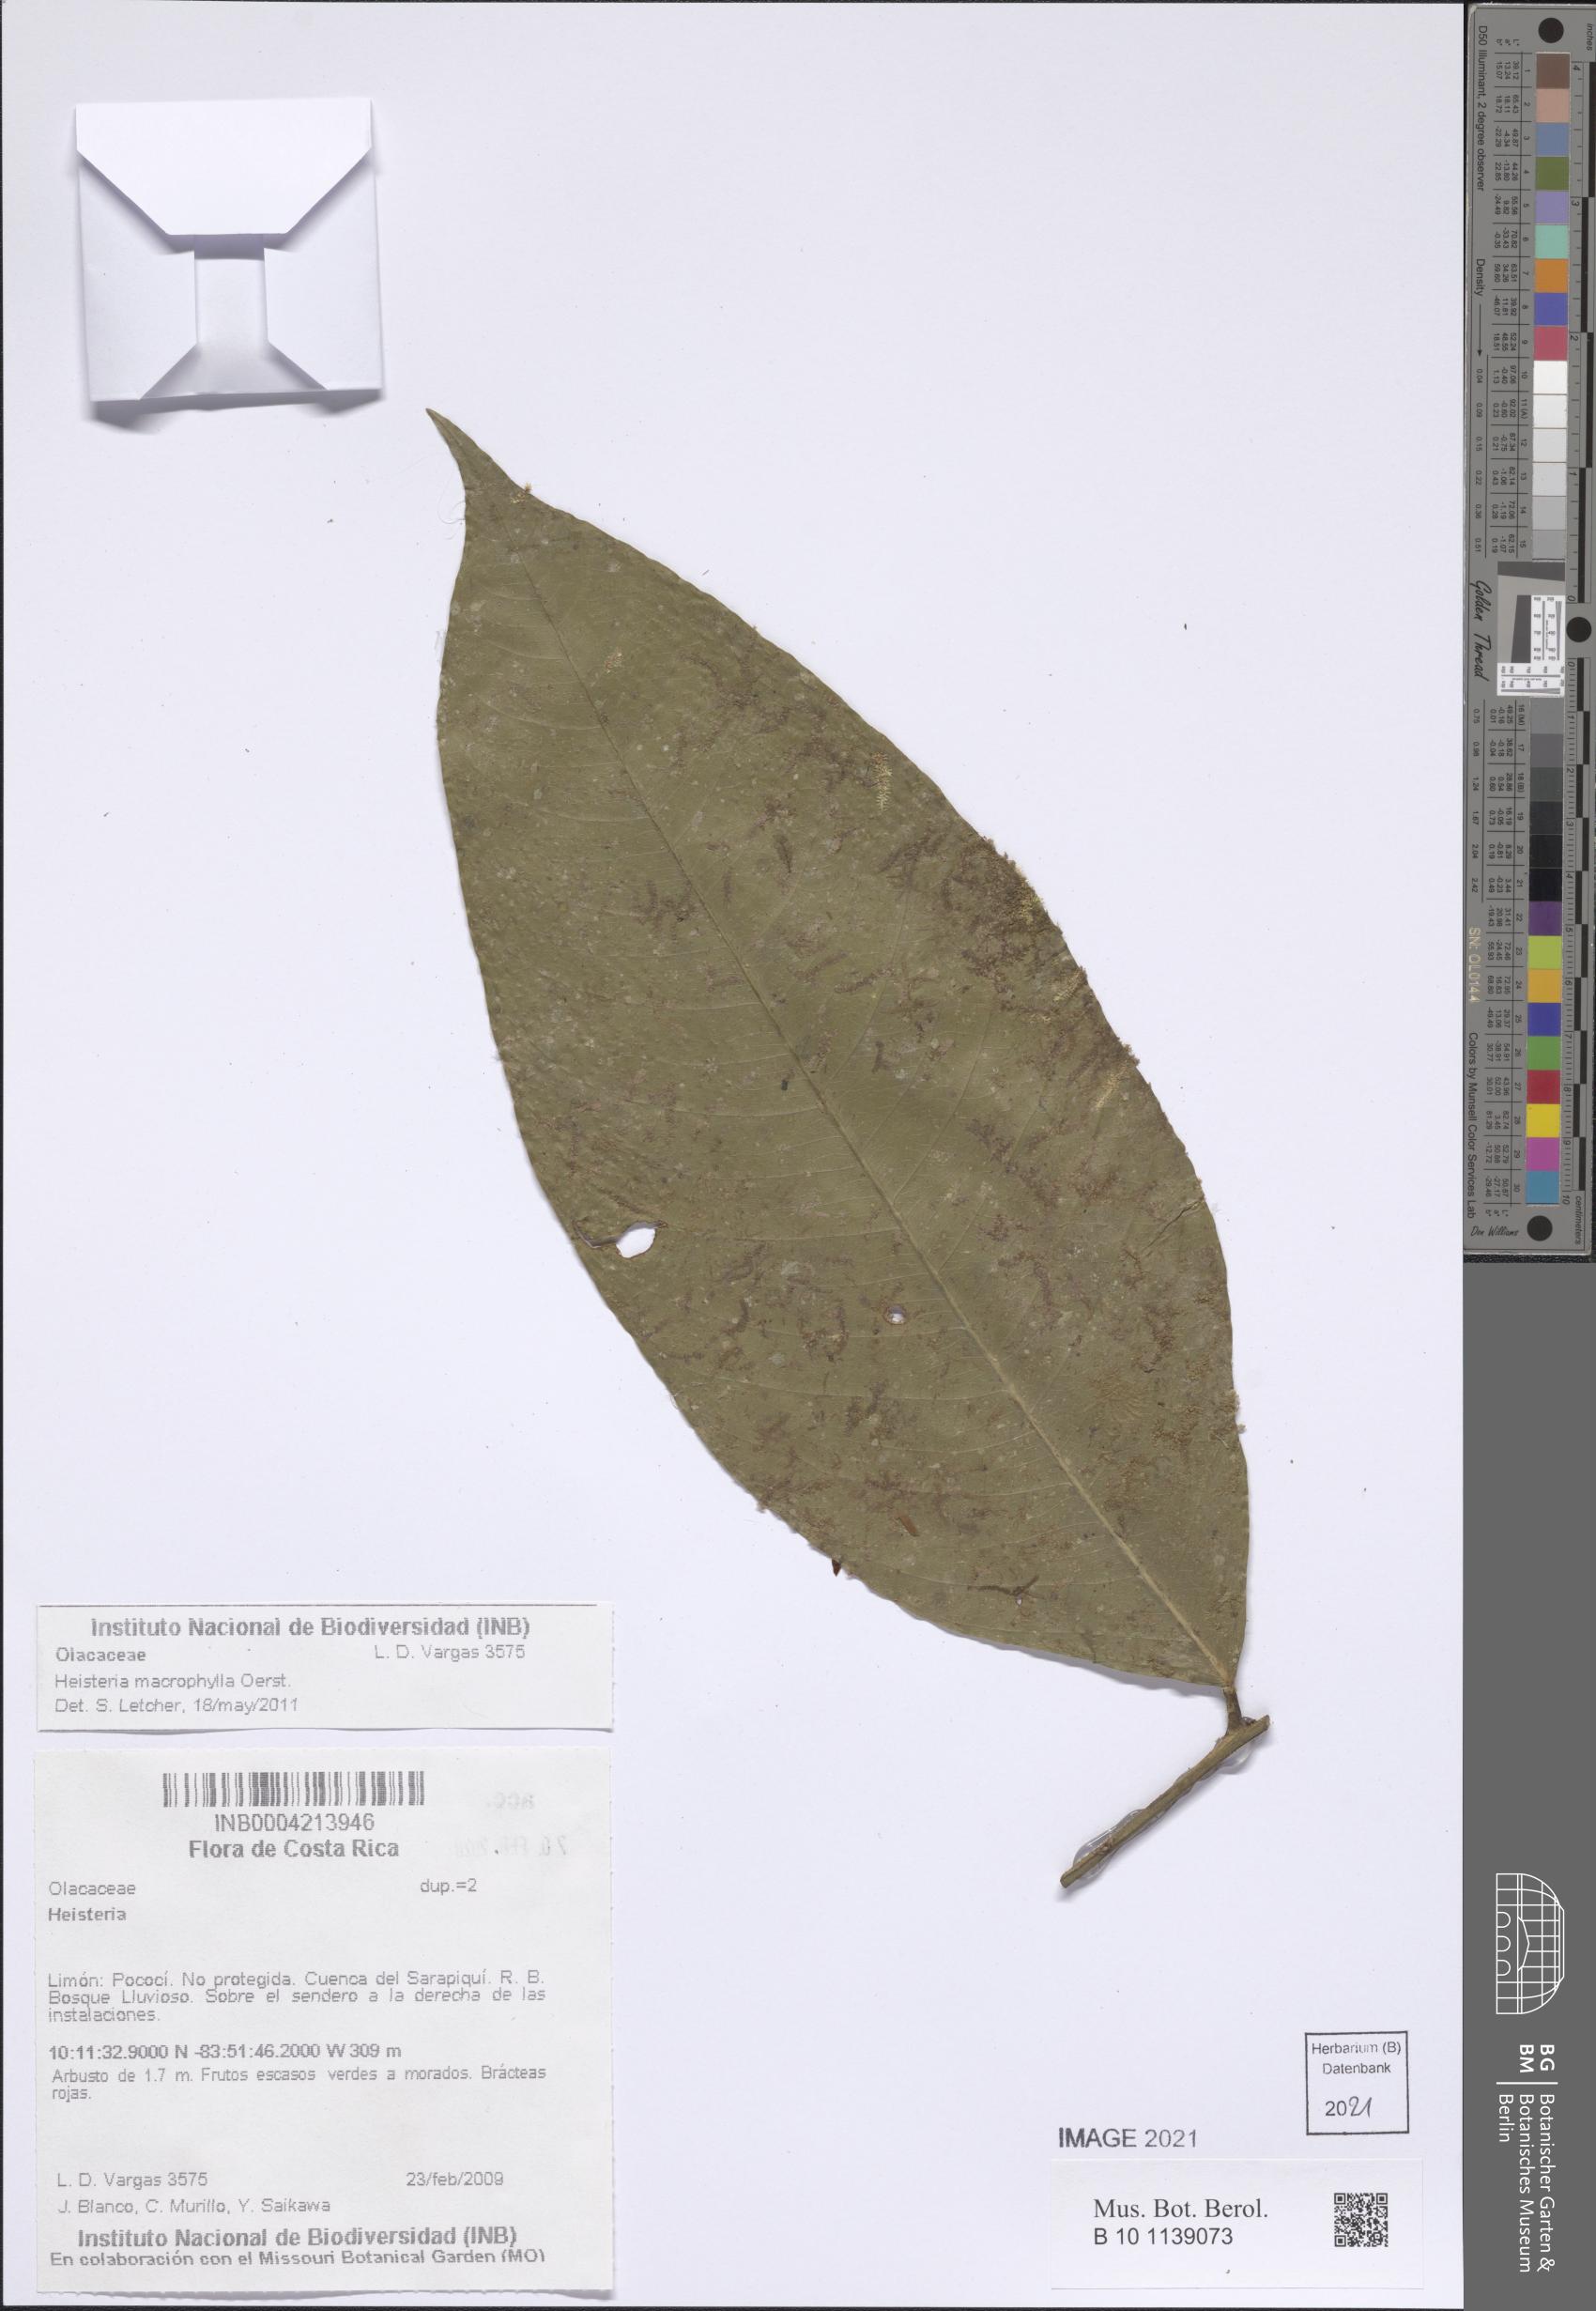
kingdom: Plantae
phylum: Tracheophyta
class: Magnoliopsida
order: Santalales
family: Erythropalaceae
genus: Heisteria
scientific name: Heisteria macrophylla
